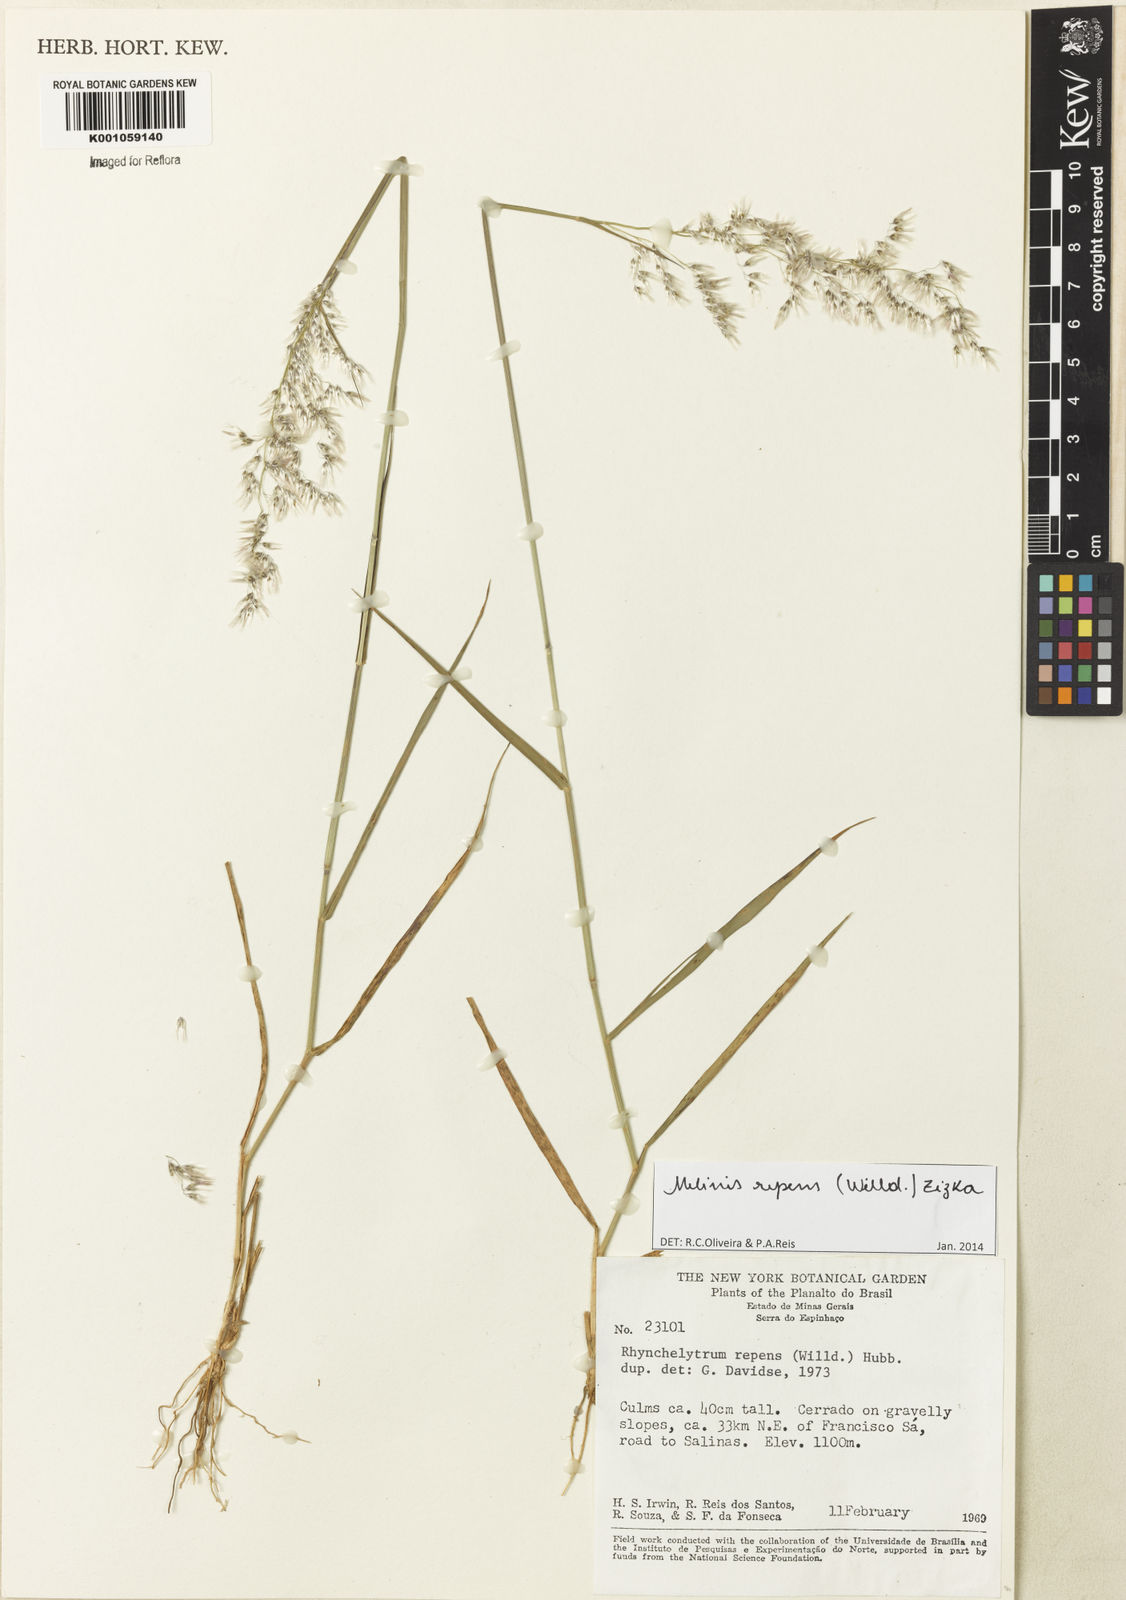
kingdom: Plantae
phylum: Tracheophyta
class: Liliopsida
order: Poales
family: Poaceae
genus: Melinis
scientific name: Melinis repens
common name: Rose natal grass
